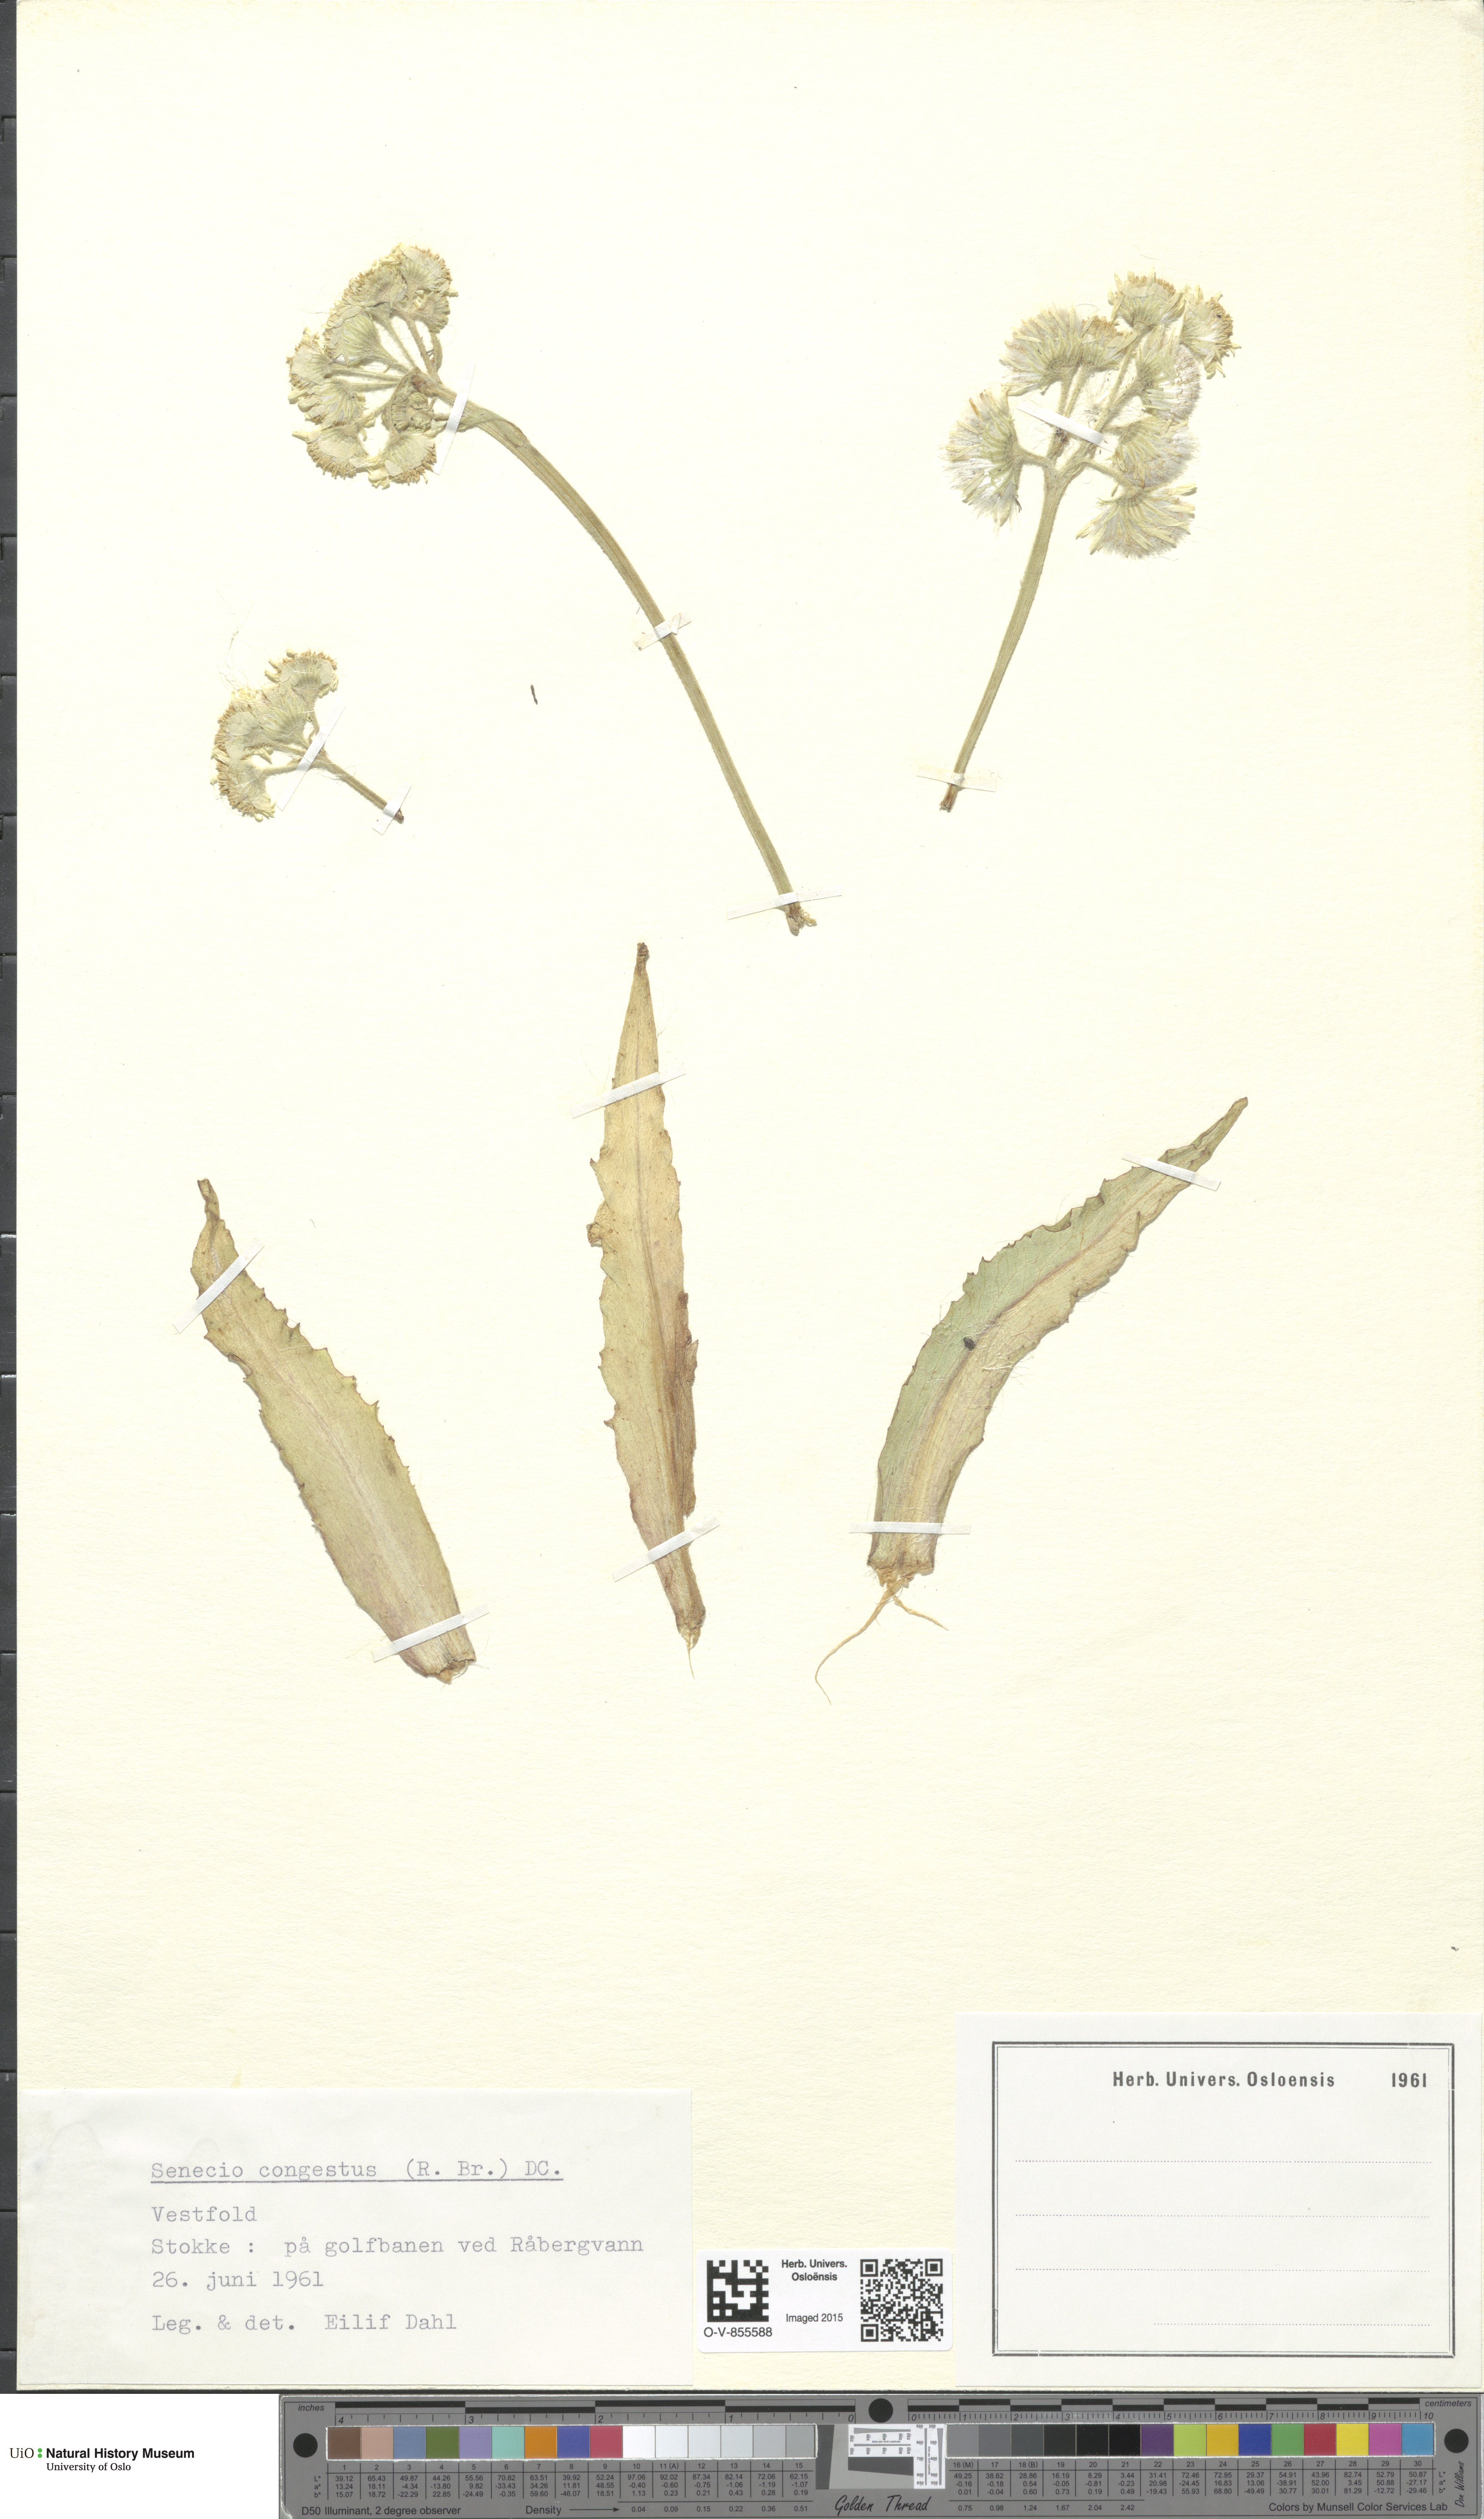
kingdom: Plantae
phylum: Tracheophyta
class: Magnoliopsida
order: Asterales
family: Asteraceae
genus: Tephroseris
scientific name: Tephroseris palustris
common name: Marsh fleawort
